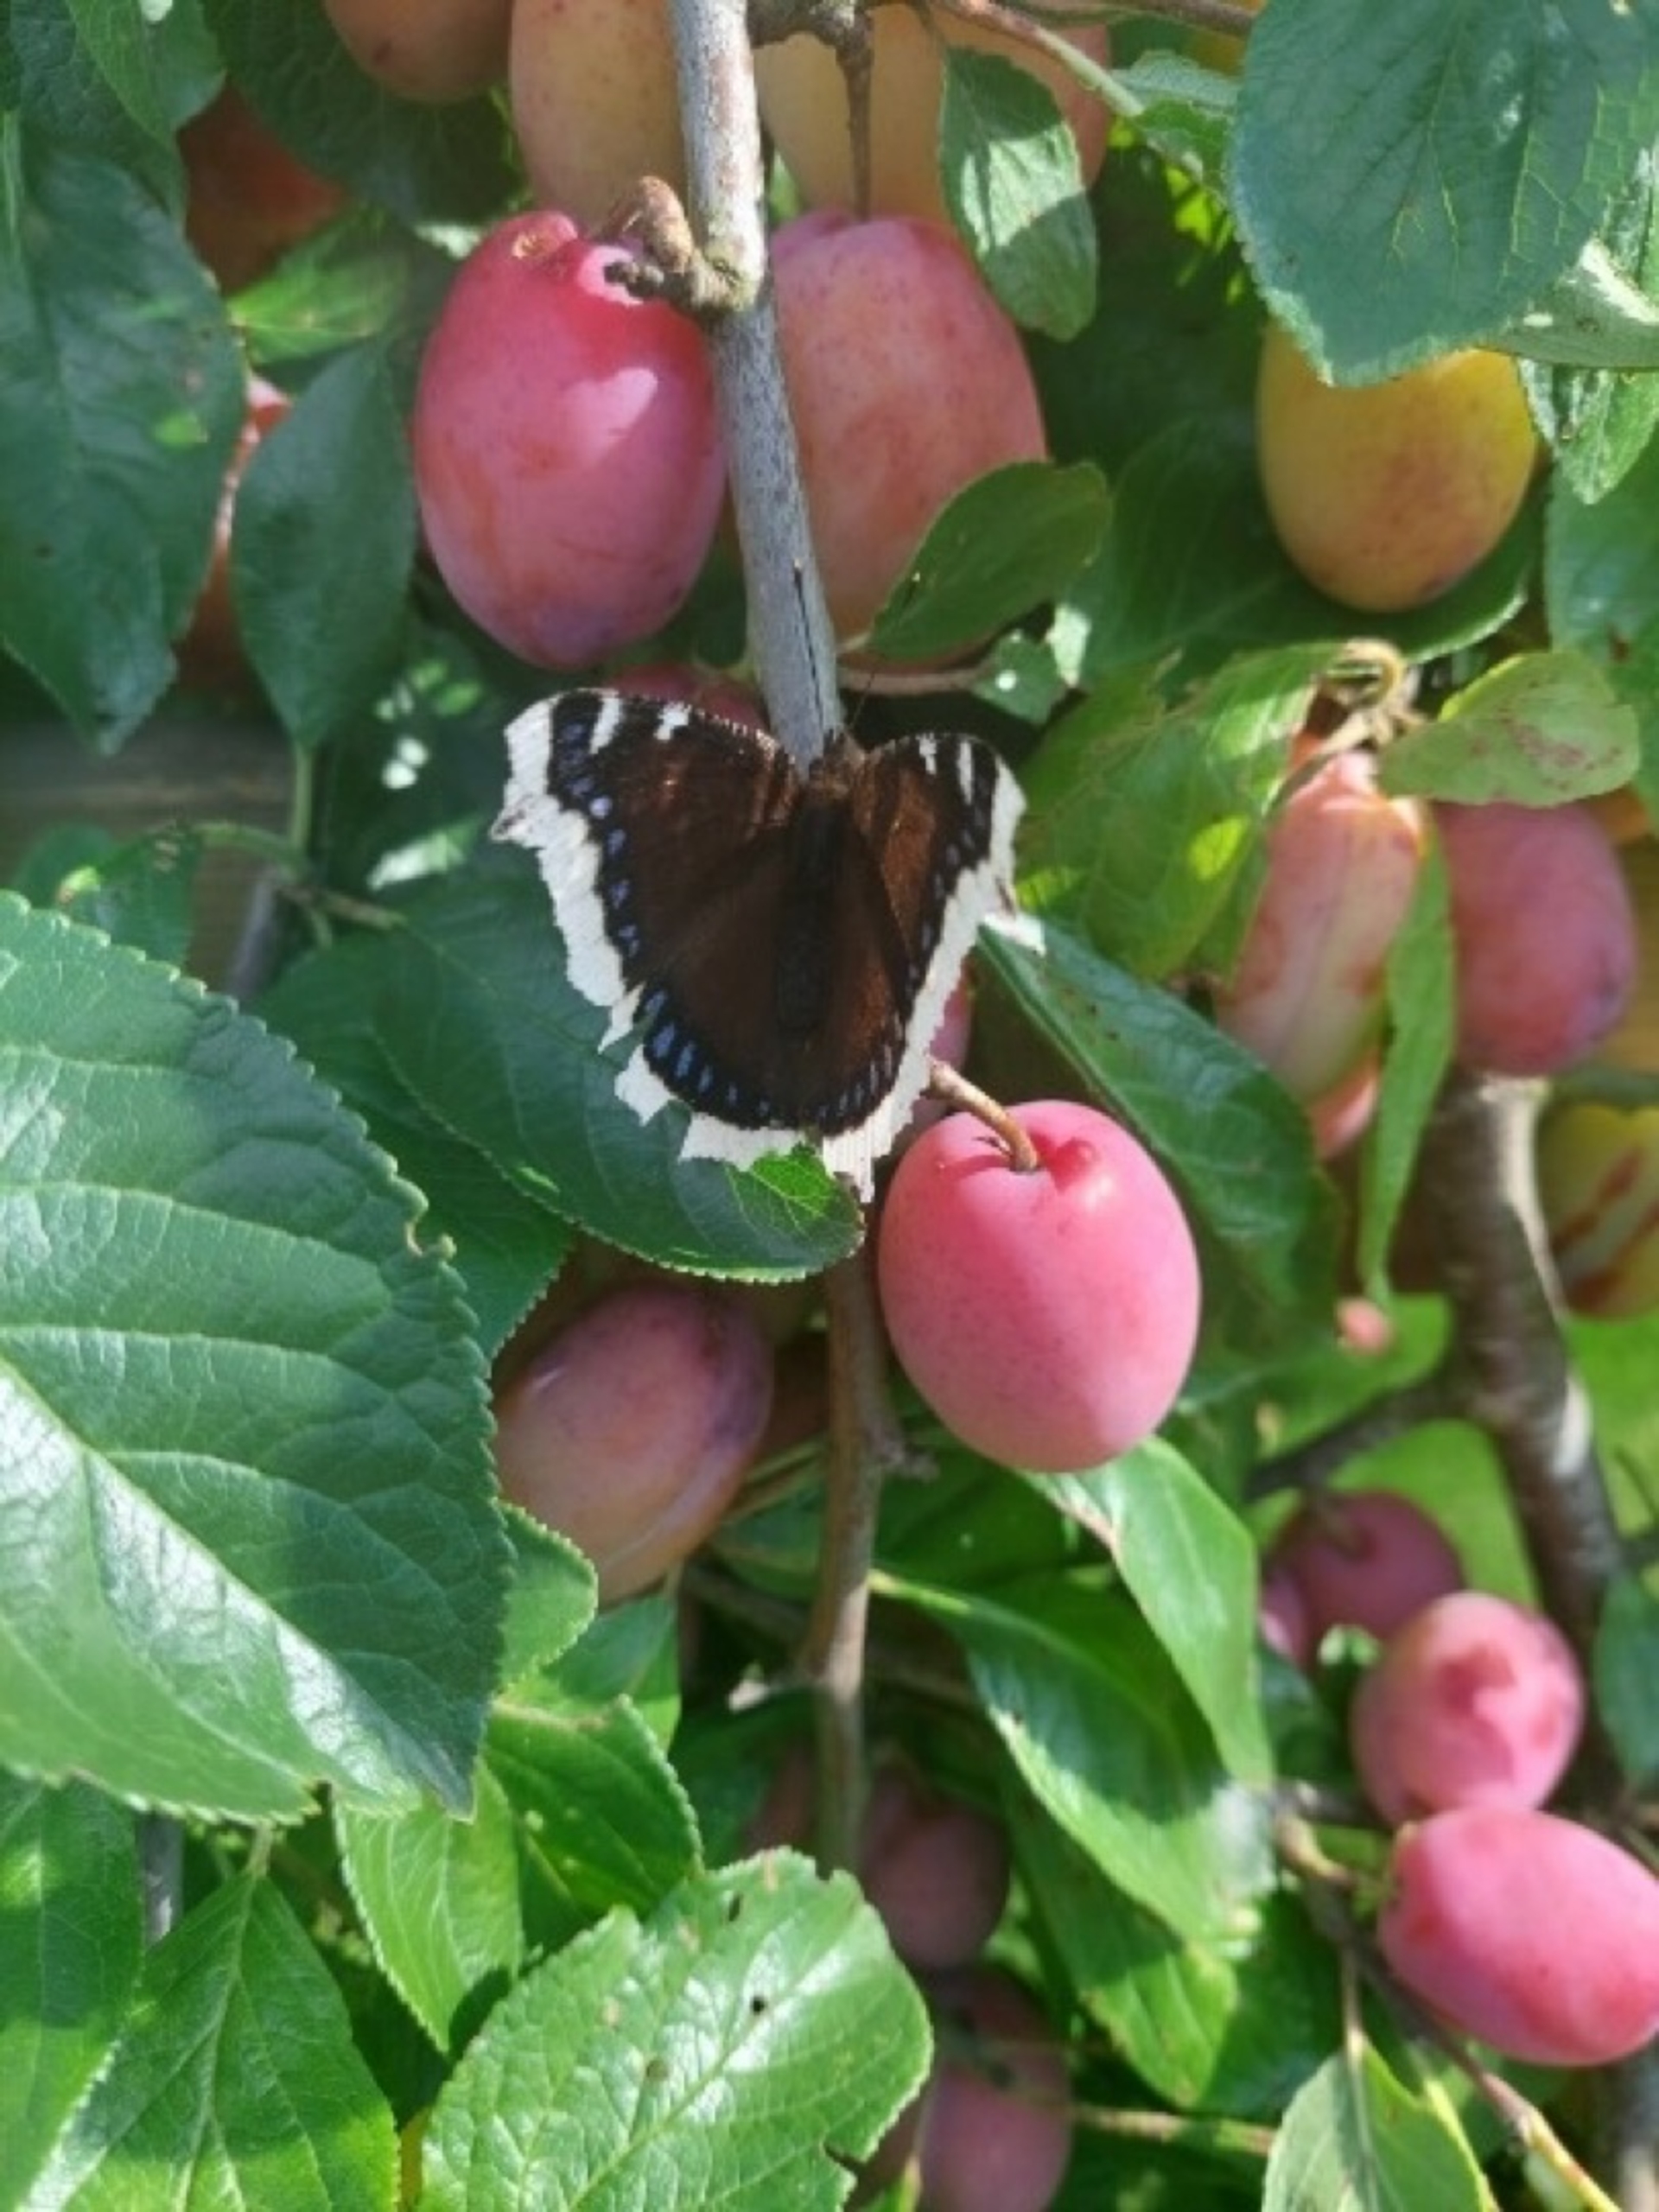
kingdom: Animalia
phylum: Arthropoda
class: Insecta
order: Lepidoptera
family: Nymphalidae
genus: Nymphalis
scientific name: Nymphalis antiopa
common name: Sørgekåbe
